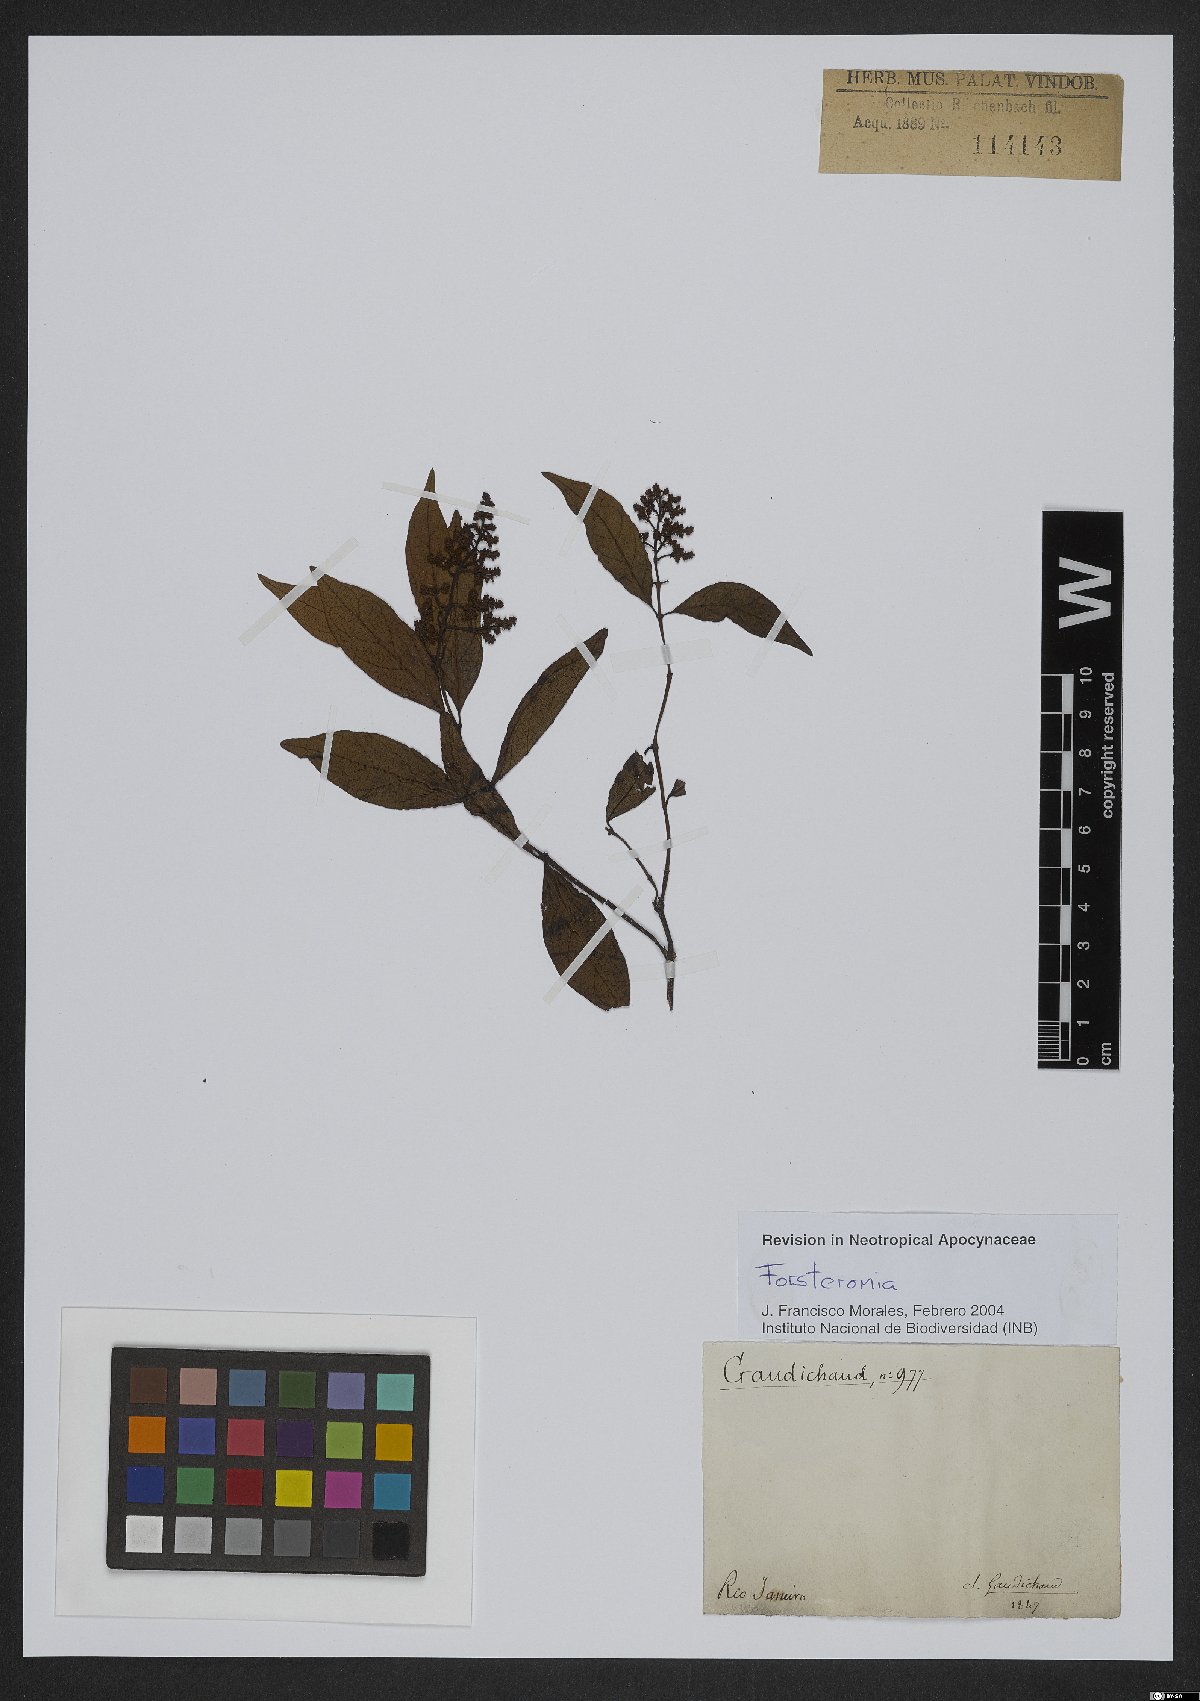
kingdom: Plantae
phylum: Tracheophyta
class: Magnoliopsida
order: Gentianales
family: Apocynaceae
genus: Forsteronia
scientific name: Forsteronia
